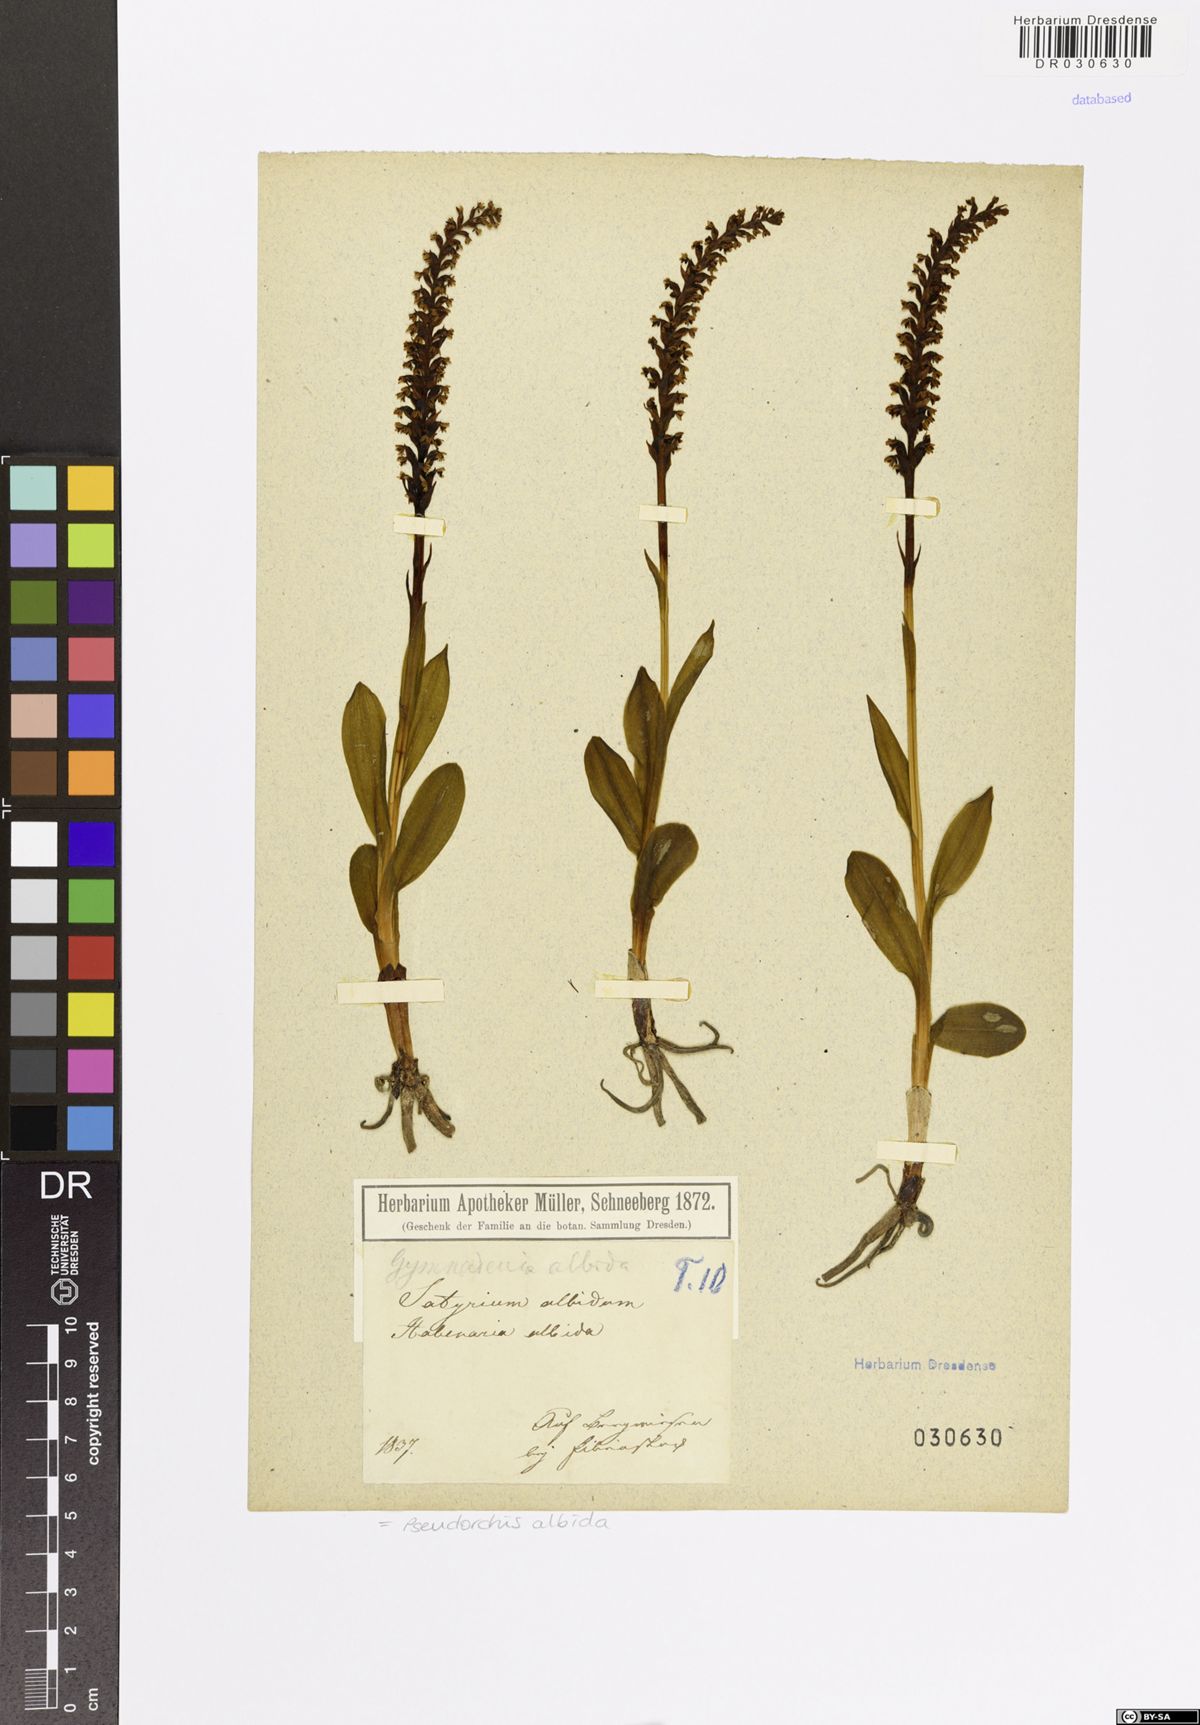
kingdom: Plantae
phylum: Tracheophyta
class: Liliopsida
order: Asparagales
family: Orchidaceae
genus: Pseudorchis
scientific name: Pseudorchis albida
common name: Small-white orchid
